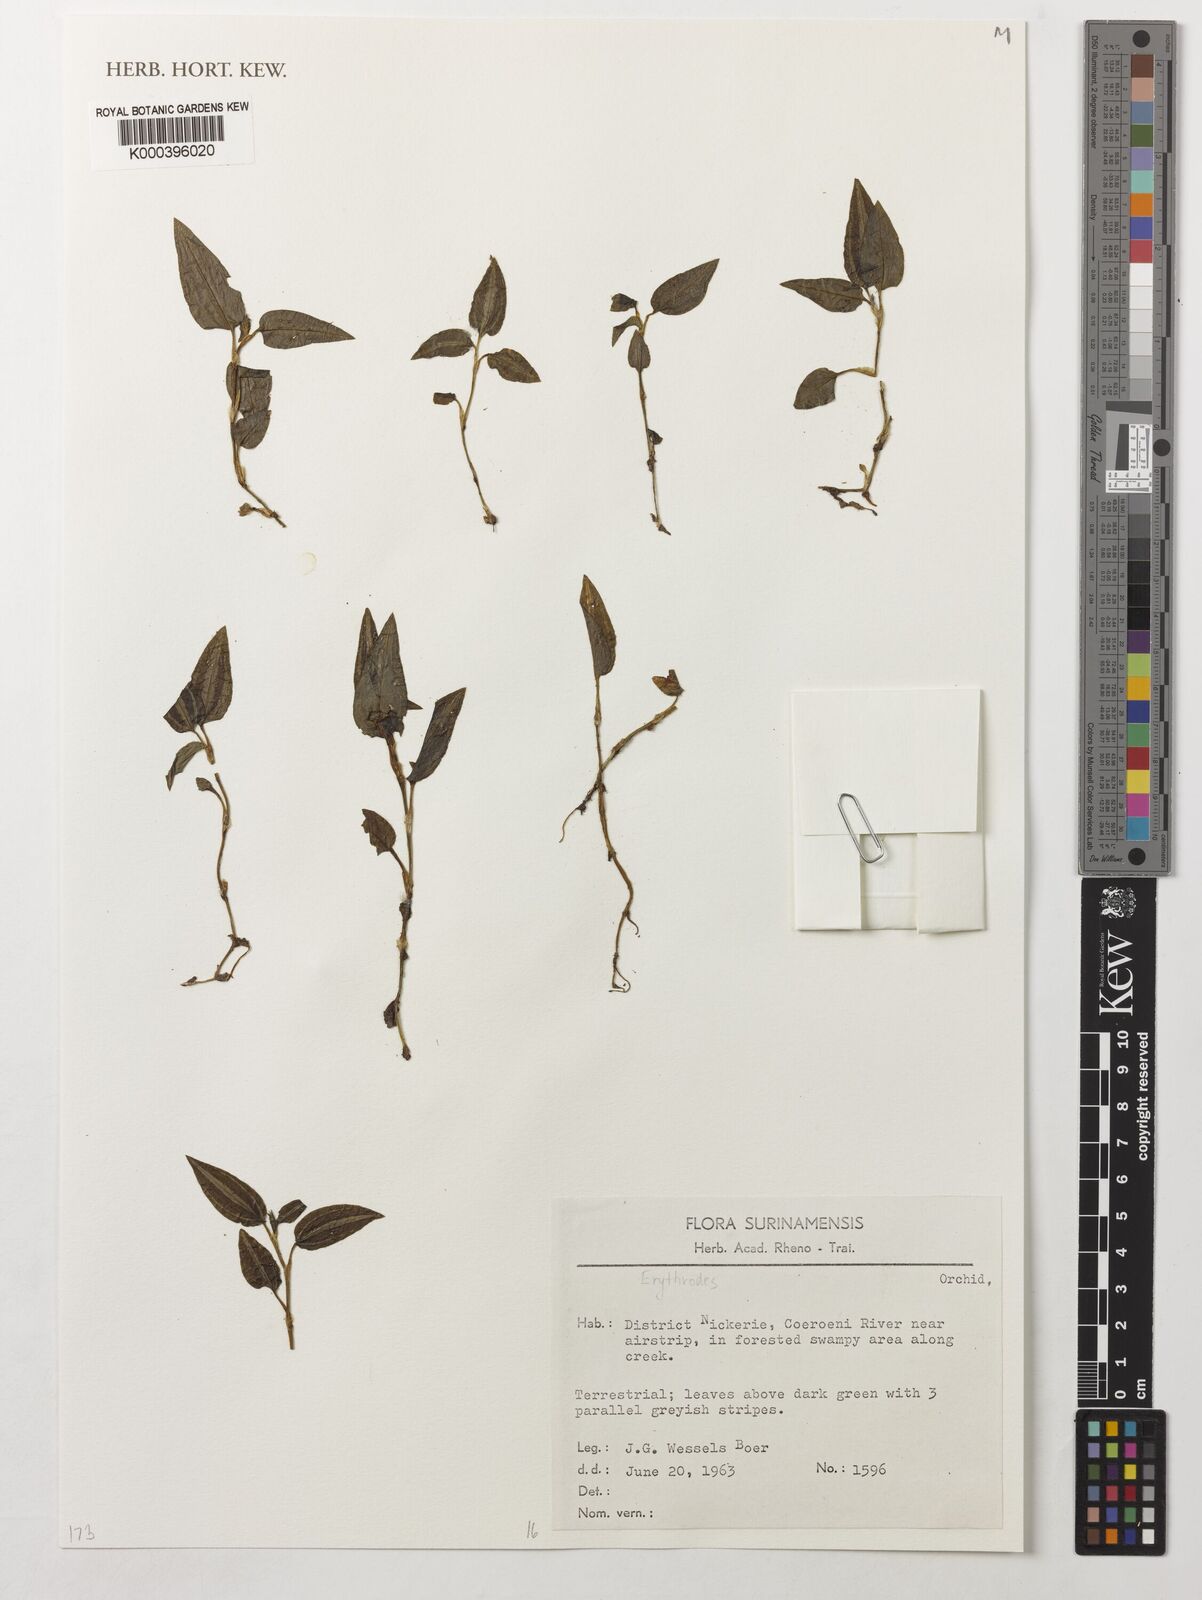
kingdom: Plantae
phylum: Tracheophyta
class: Liliopsida
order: Asparagales
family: Orchidaceae
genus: Erythrodes
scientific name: Erythrodes
